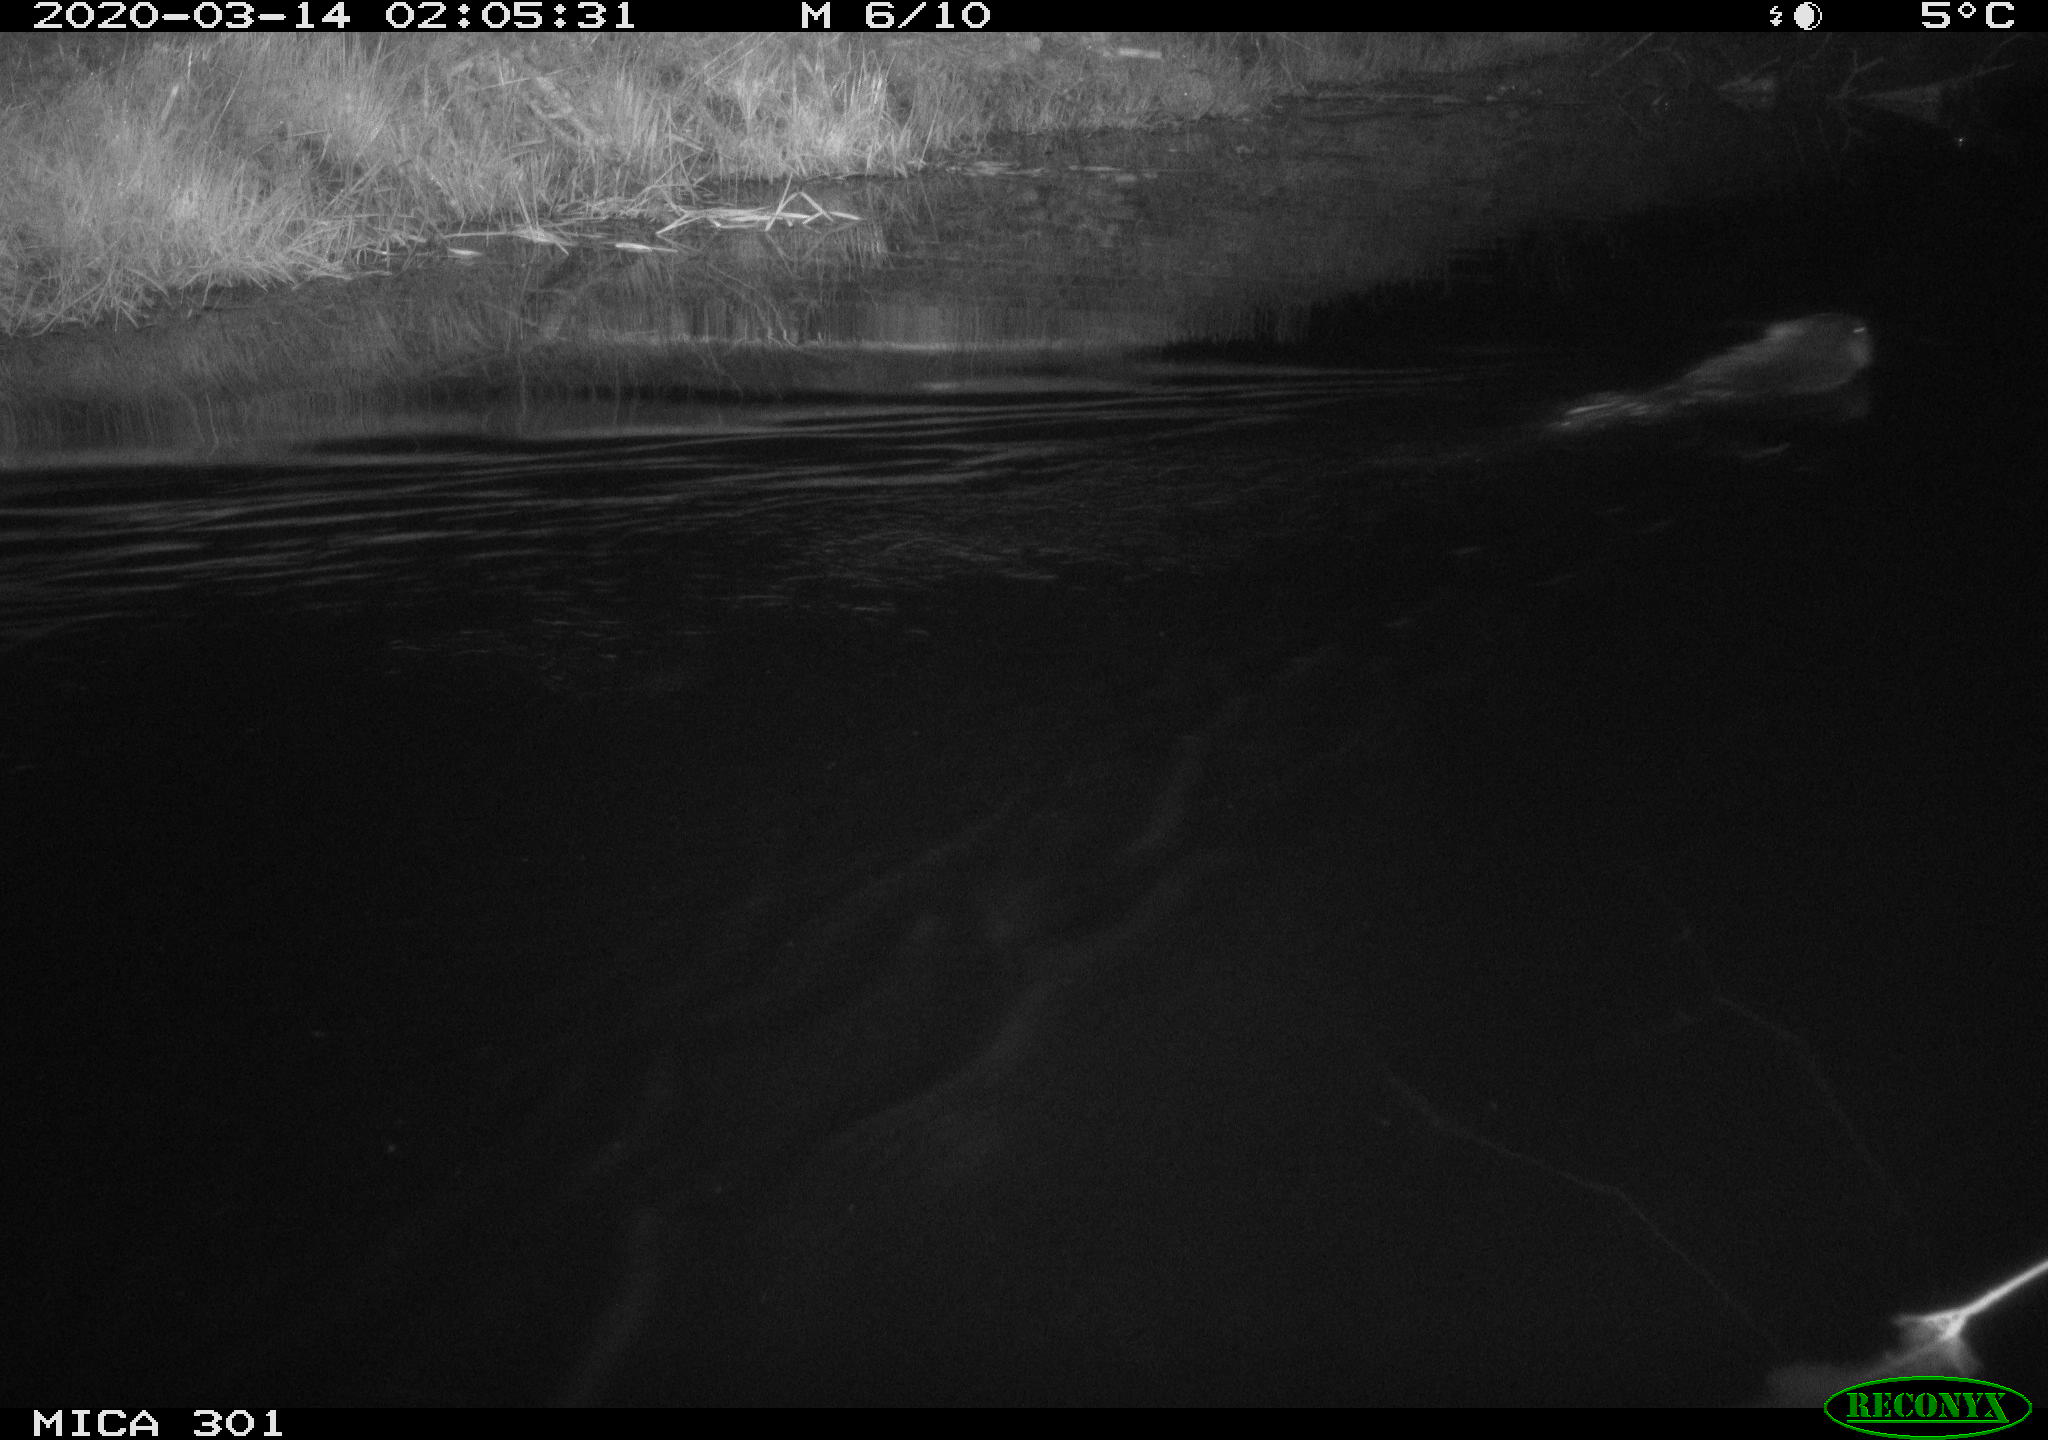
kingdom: Animalia
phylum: Chordata
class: Mammalia
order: Rodentia
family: Castoridae
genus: Castor
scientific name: Castor fiber
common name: Eurasian beaver
